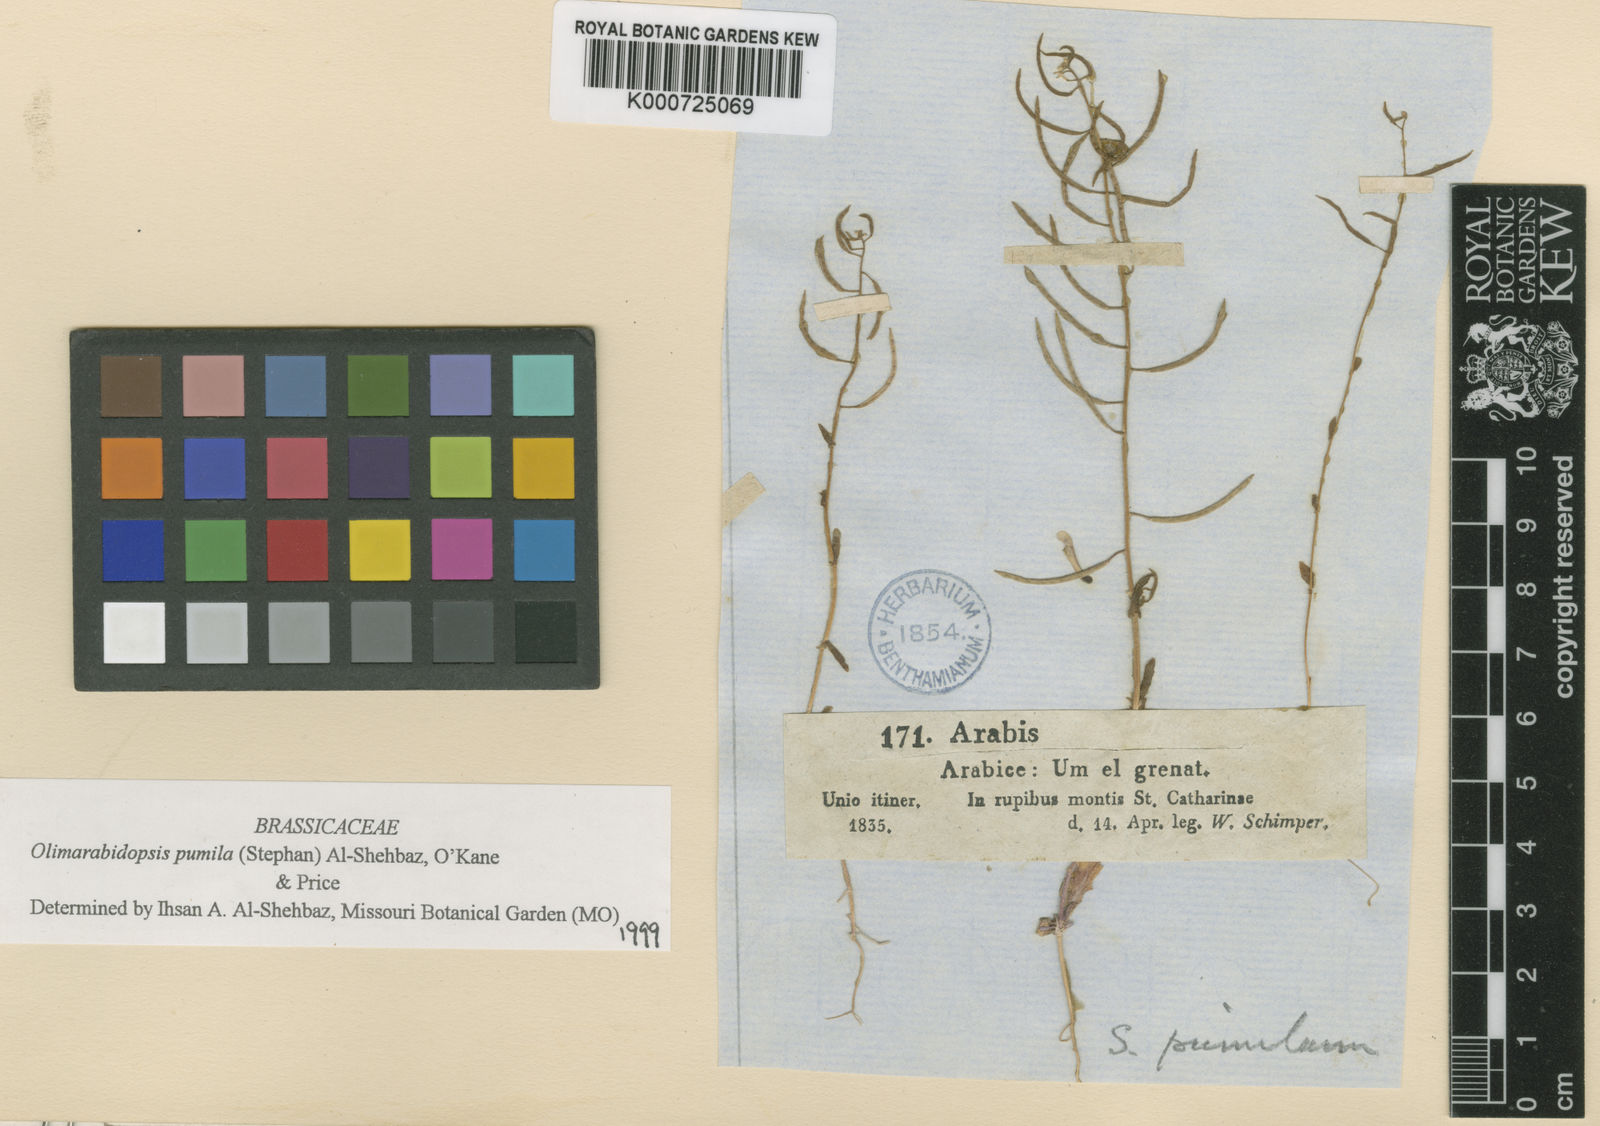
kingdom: Plantae
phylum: Tracheophyta
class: Magnoliopsida
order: Brassicales
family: Brassicaceae
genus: Olimarabidopsis
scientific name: Olimarabidopsis
